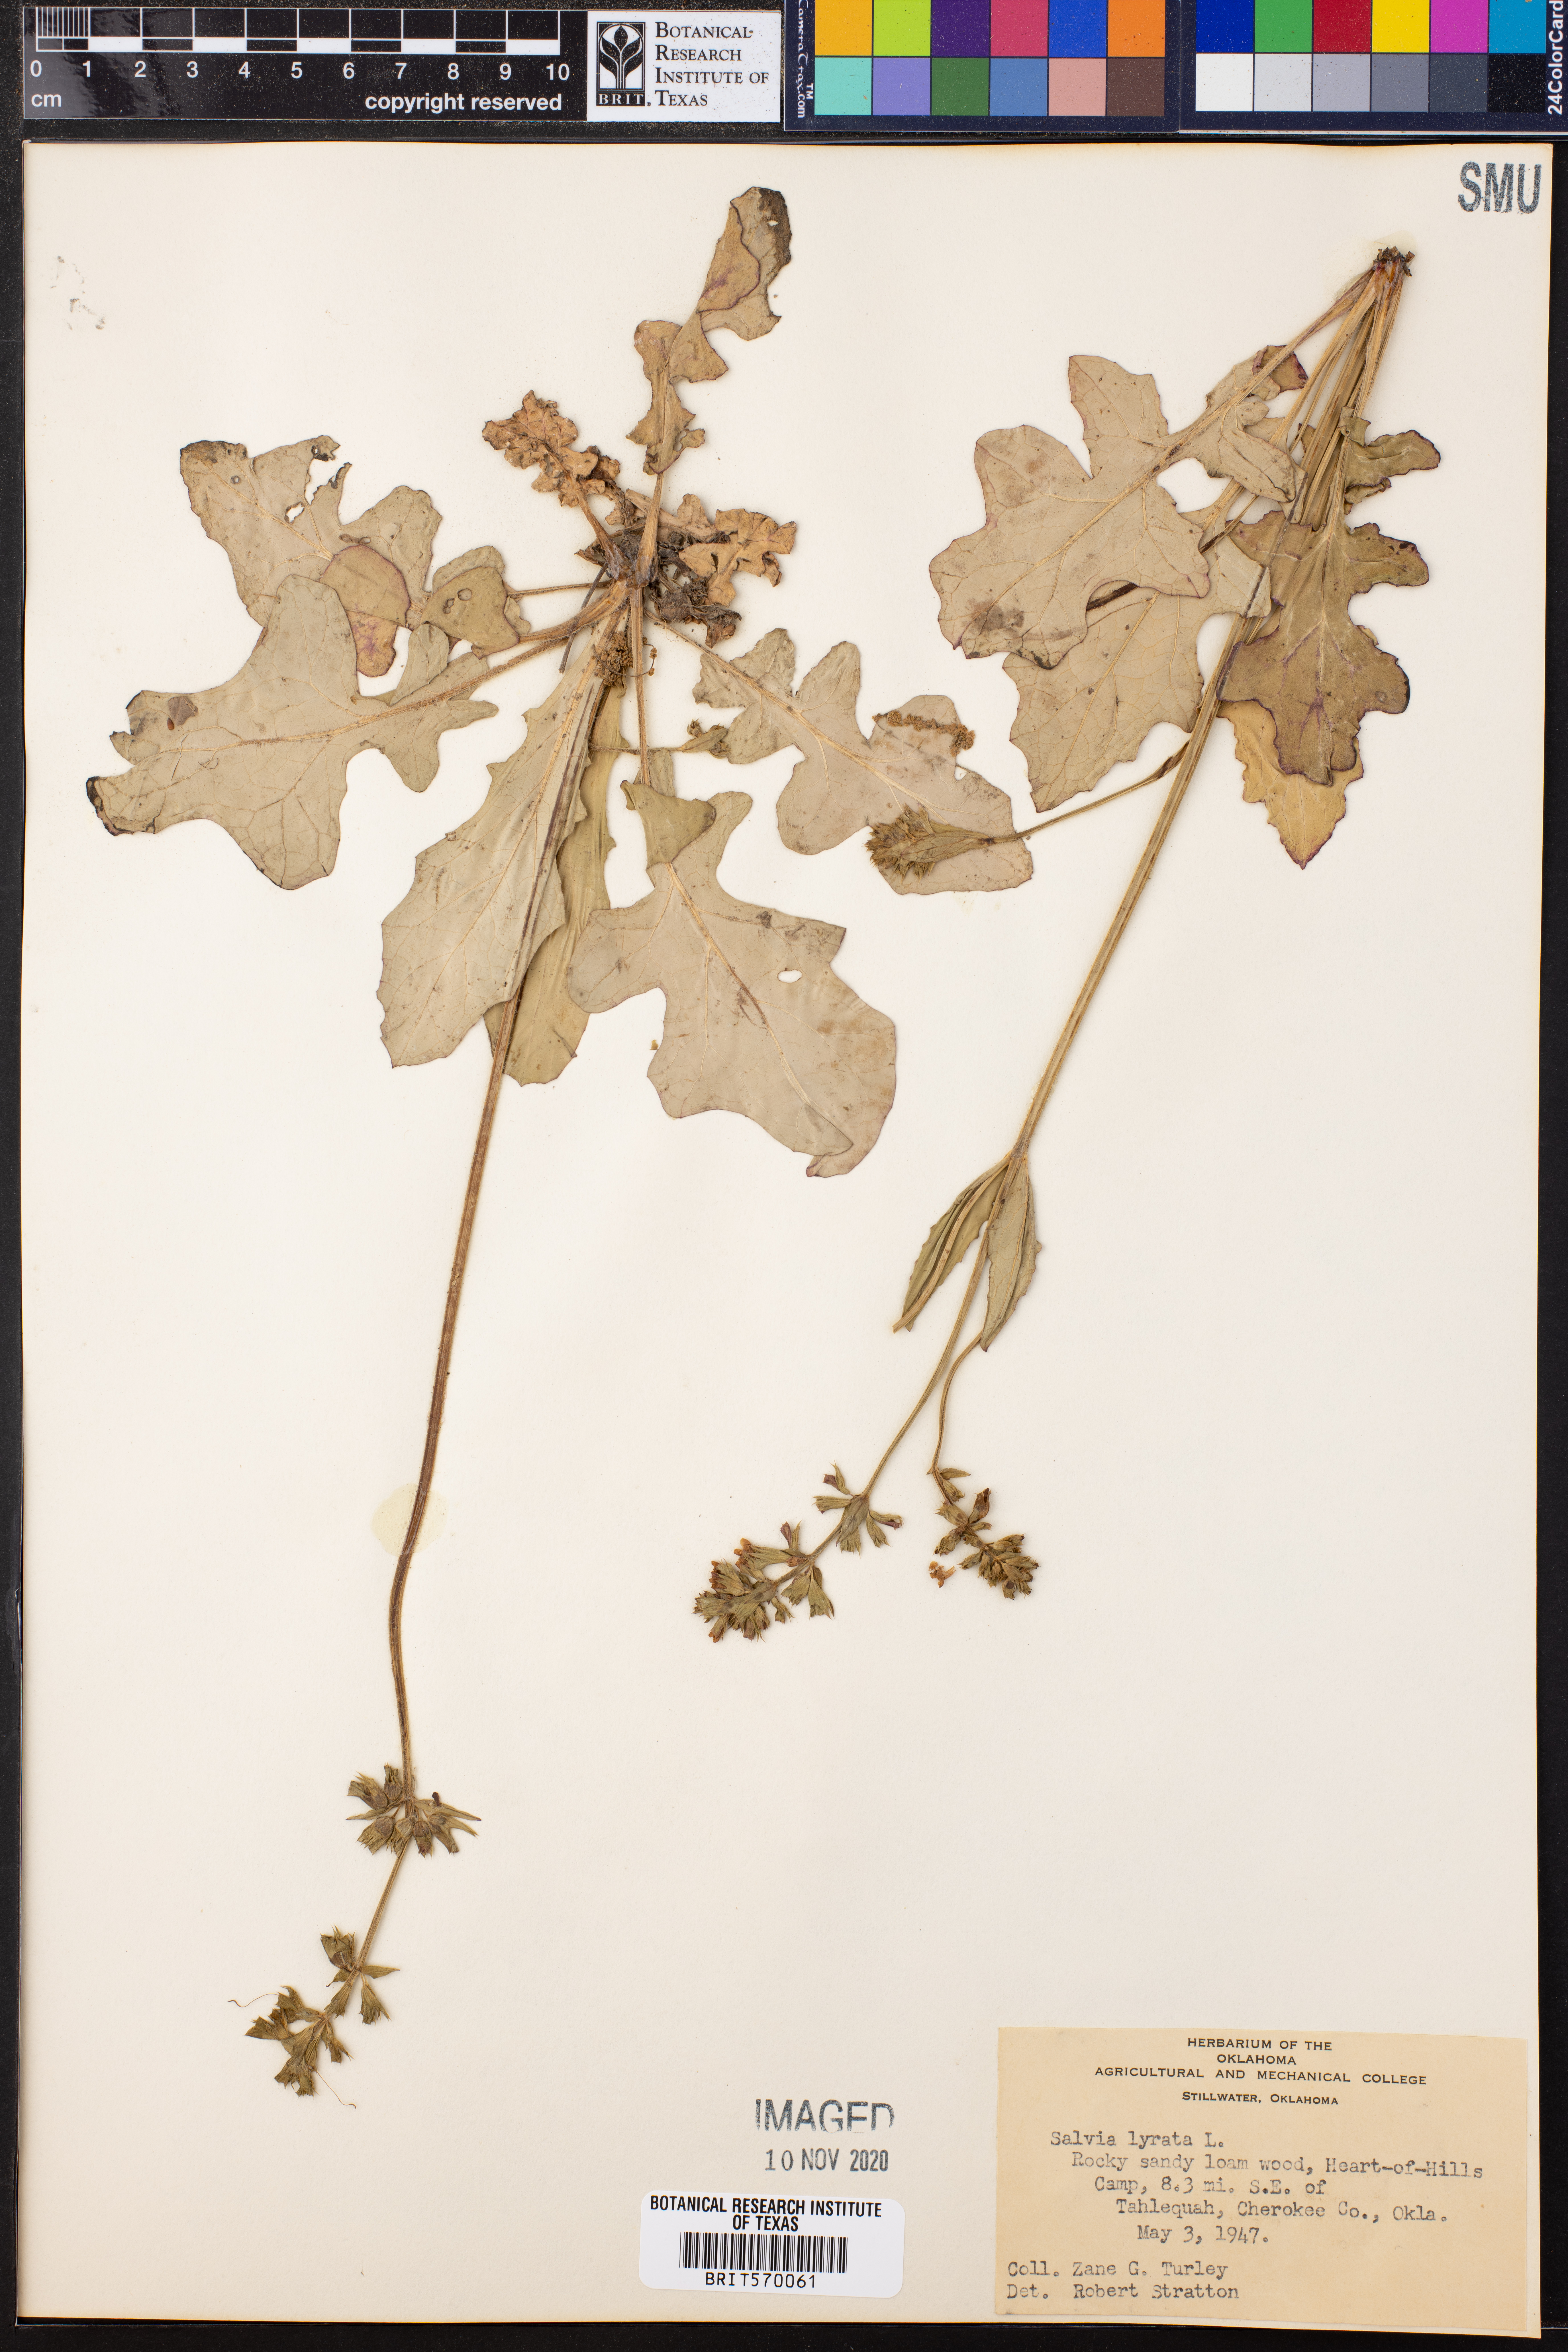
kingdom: Plantae
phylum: Tracheophyta
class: Magnoliopsida
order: Lamiales
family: Lamiaceae
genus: Salvia
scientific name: Salvia lyrata
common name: Cancerweed
